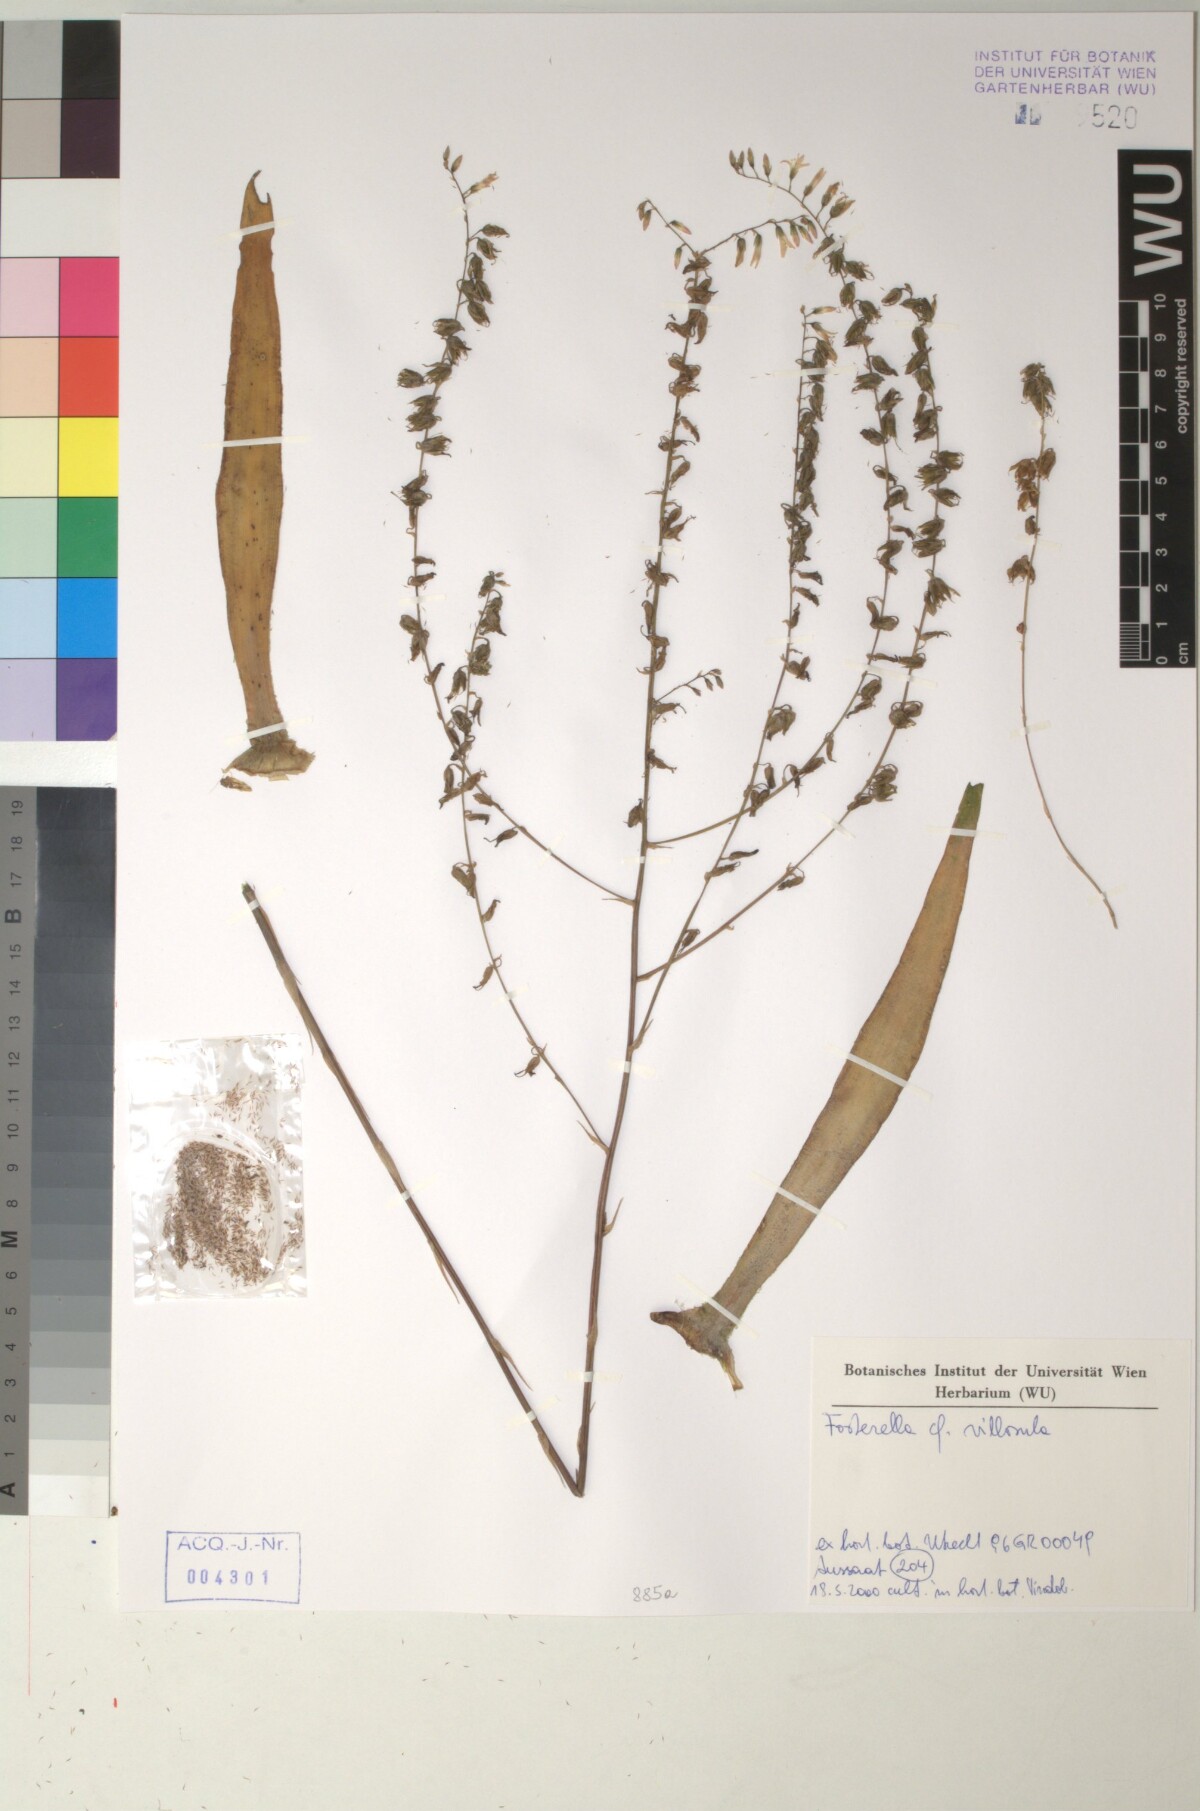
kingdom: Plantae
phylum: Tracheophyta
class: Liliopsida
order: Poales
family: Bromeliaceae
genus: Fosterella
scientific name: Fosterella penduliflora
